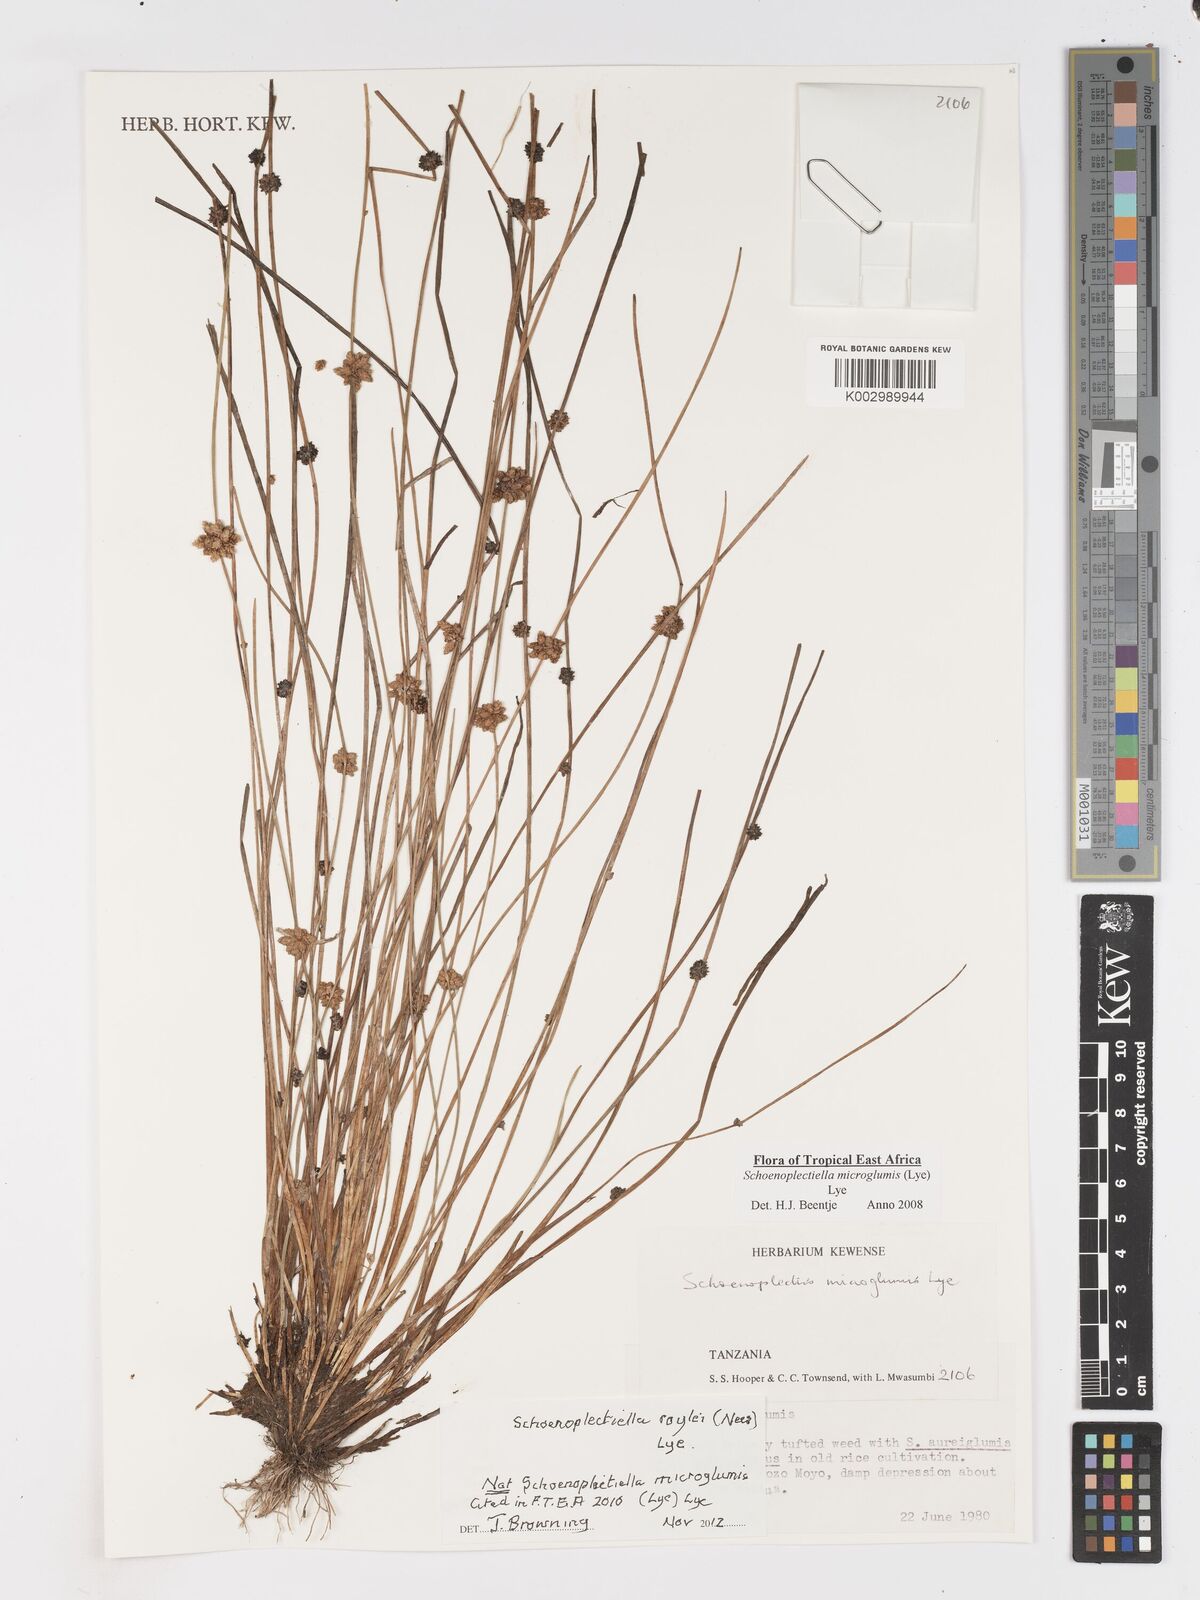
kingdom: Plantae
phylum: Tracheophyta
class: Liliopsida
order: Poales
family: Cyperaceae
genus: Schoenoplectiella
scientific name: Schoenoplectiella roylei
